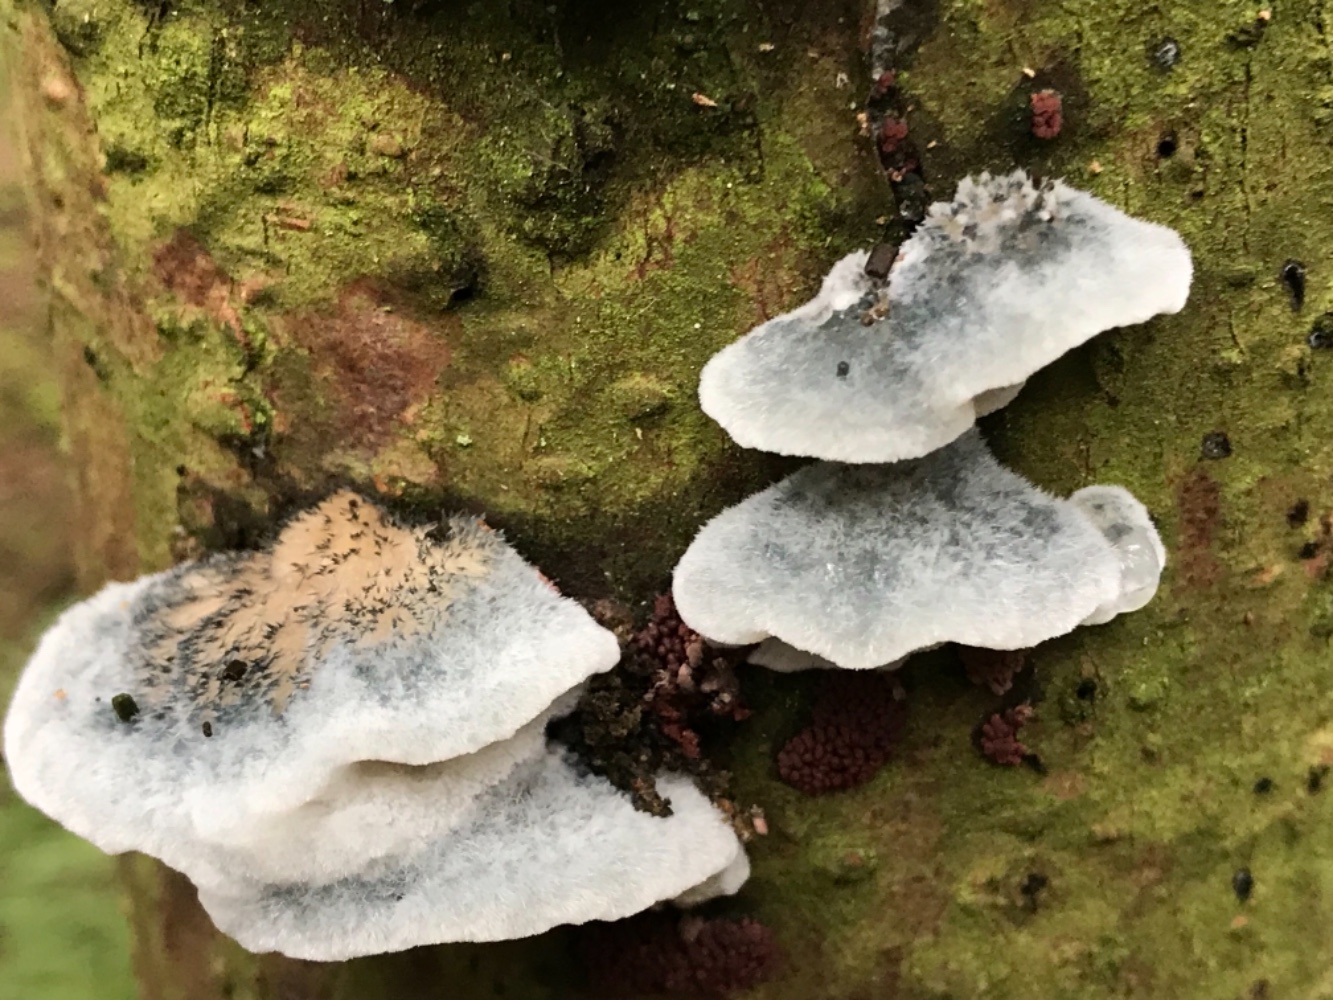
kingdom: Fungi
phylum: Basidiomycota
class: Agaricomycetes
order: Polyporales
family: Polyporaceae
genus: Cyanosporus
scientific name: Cyanosporus caesius
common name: blålig kødporesvamp
